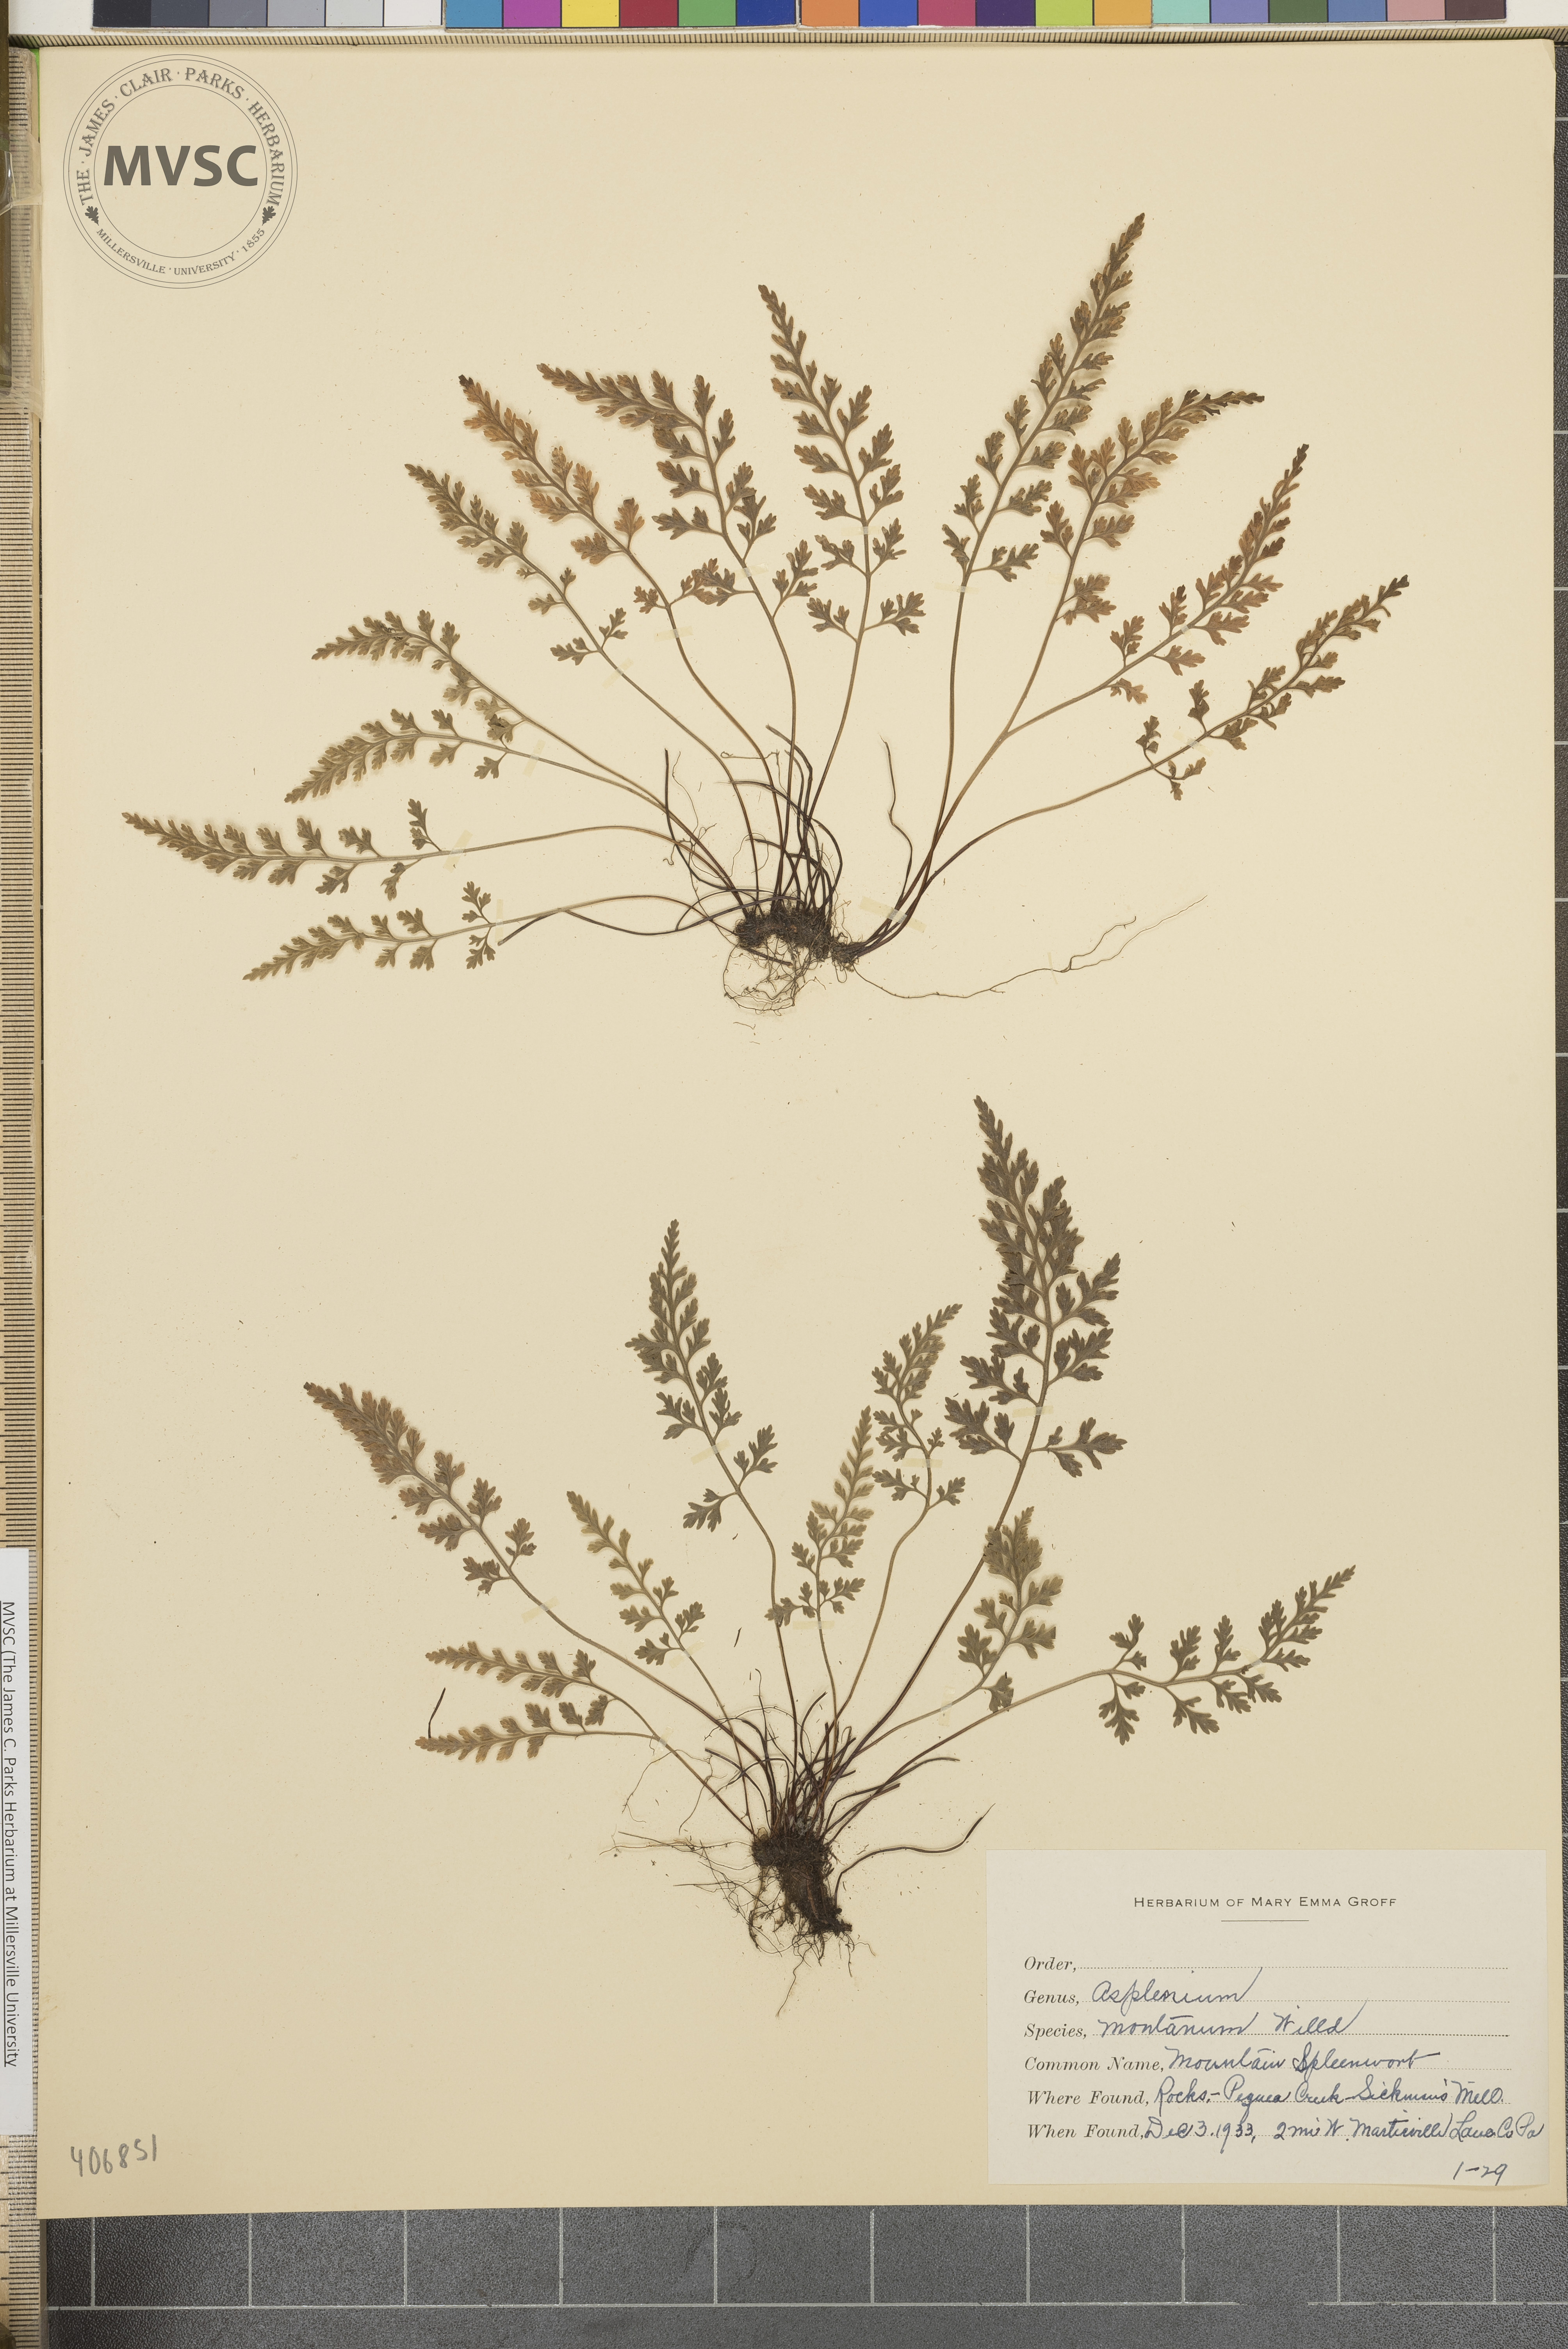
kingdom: Plantae
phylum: Tracheophyta
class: Polypodiopsida
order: Polypodiales
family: Aspleniaceae
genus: Asplenium
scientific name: Asplenium montanum
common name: Mountain spleenwort
